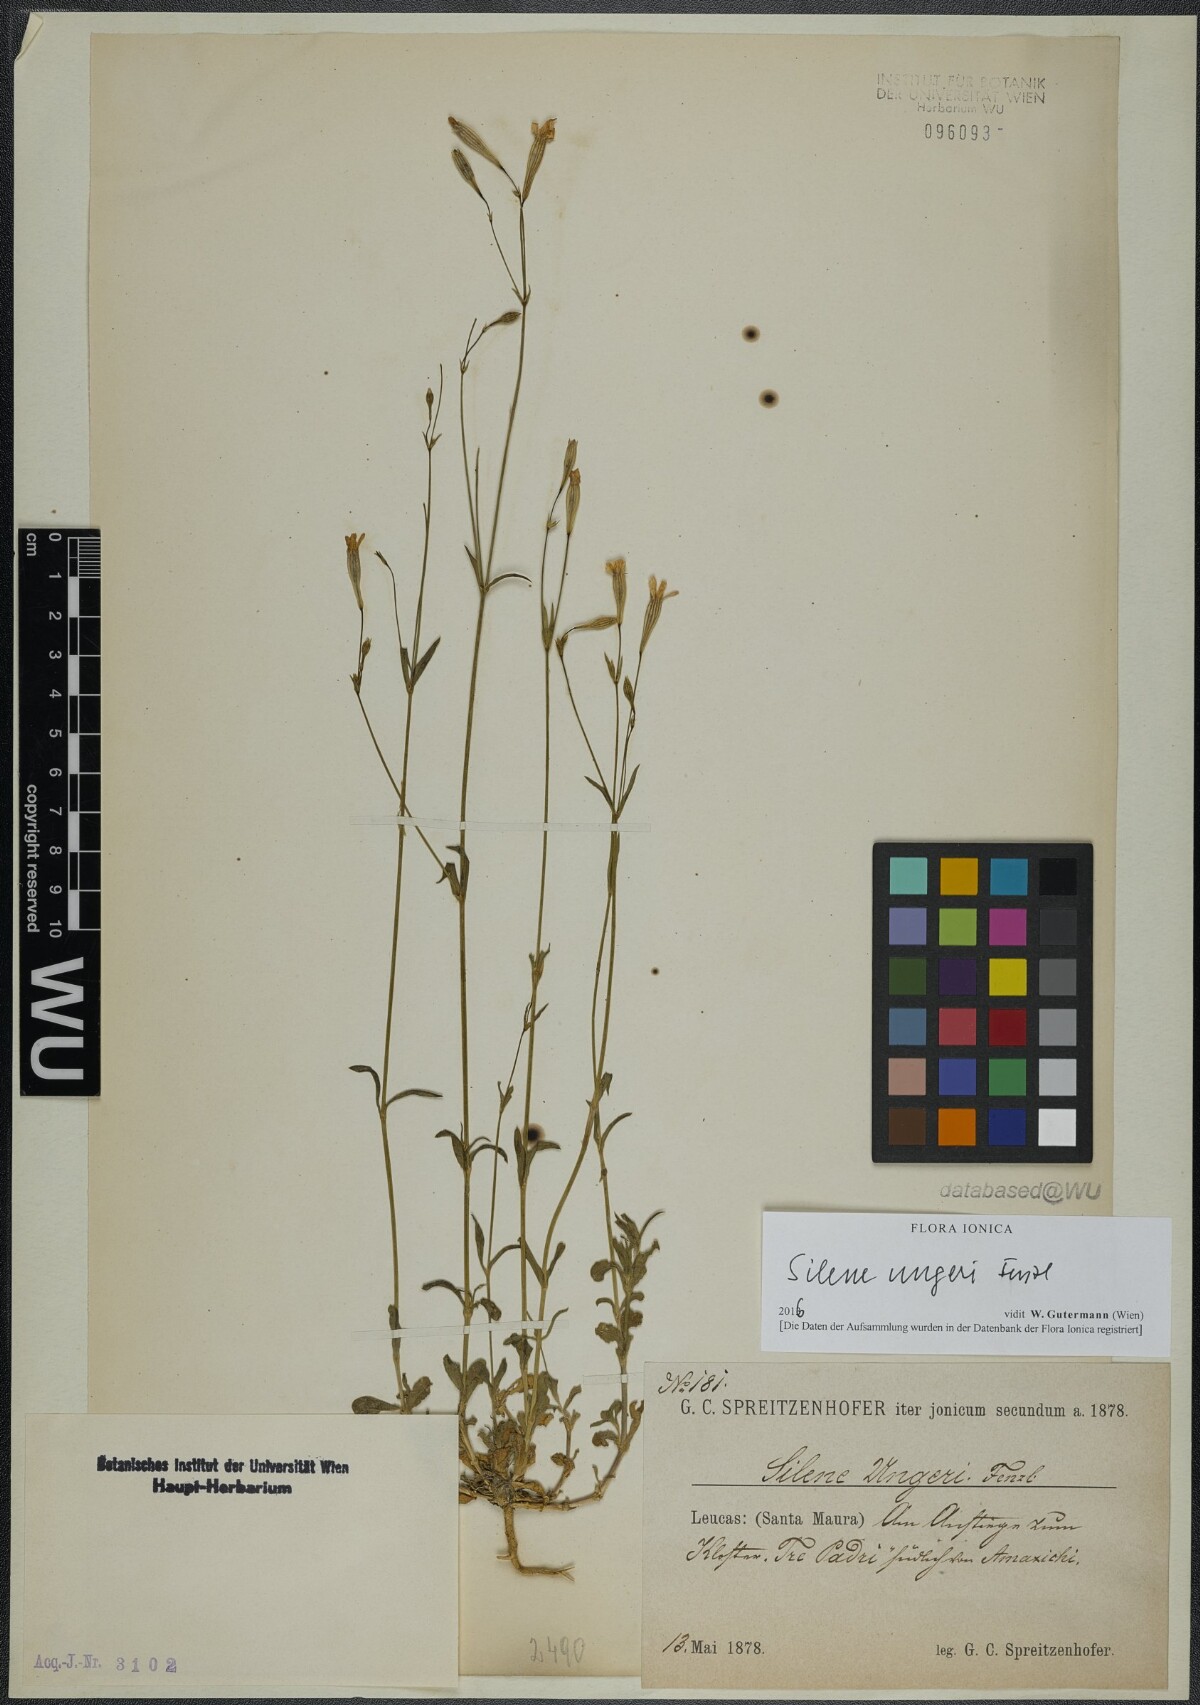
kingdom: Plantae
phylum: Tracheophyta
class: Magnoliopsida
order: Caryophyllales
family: Caryophyllaceae
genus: Silene
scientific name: Silene ungeri
